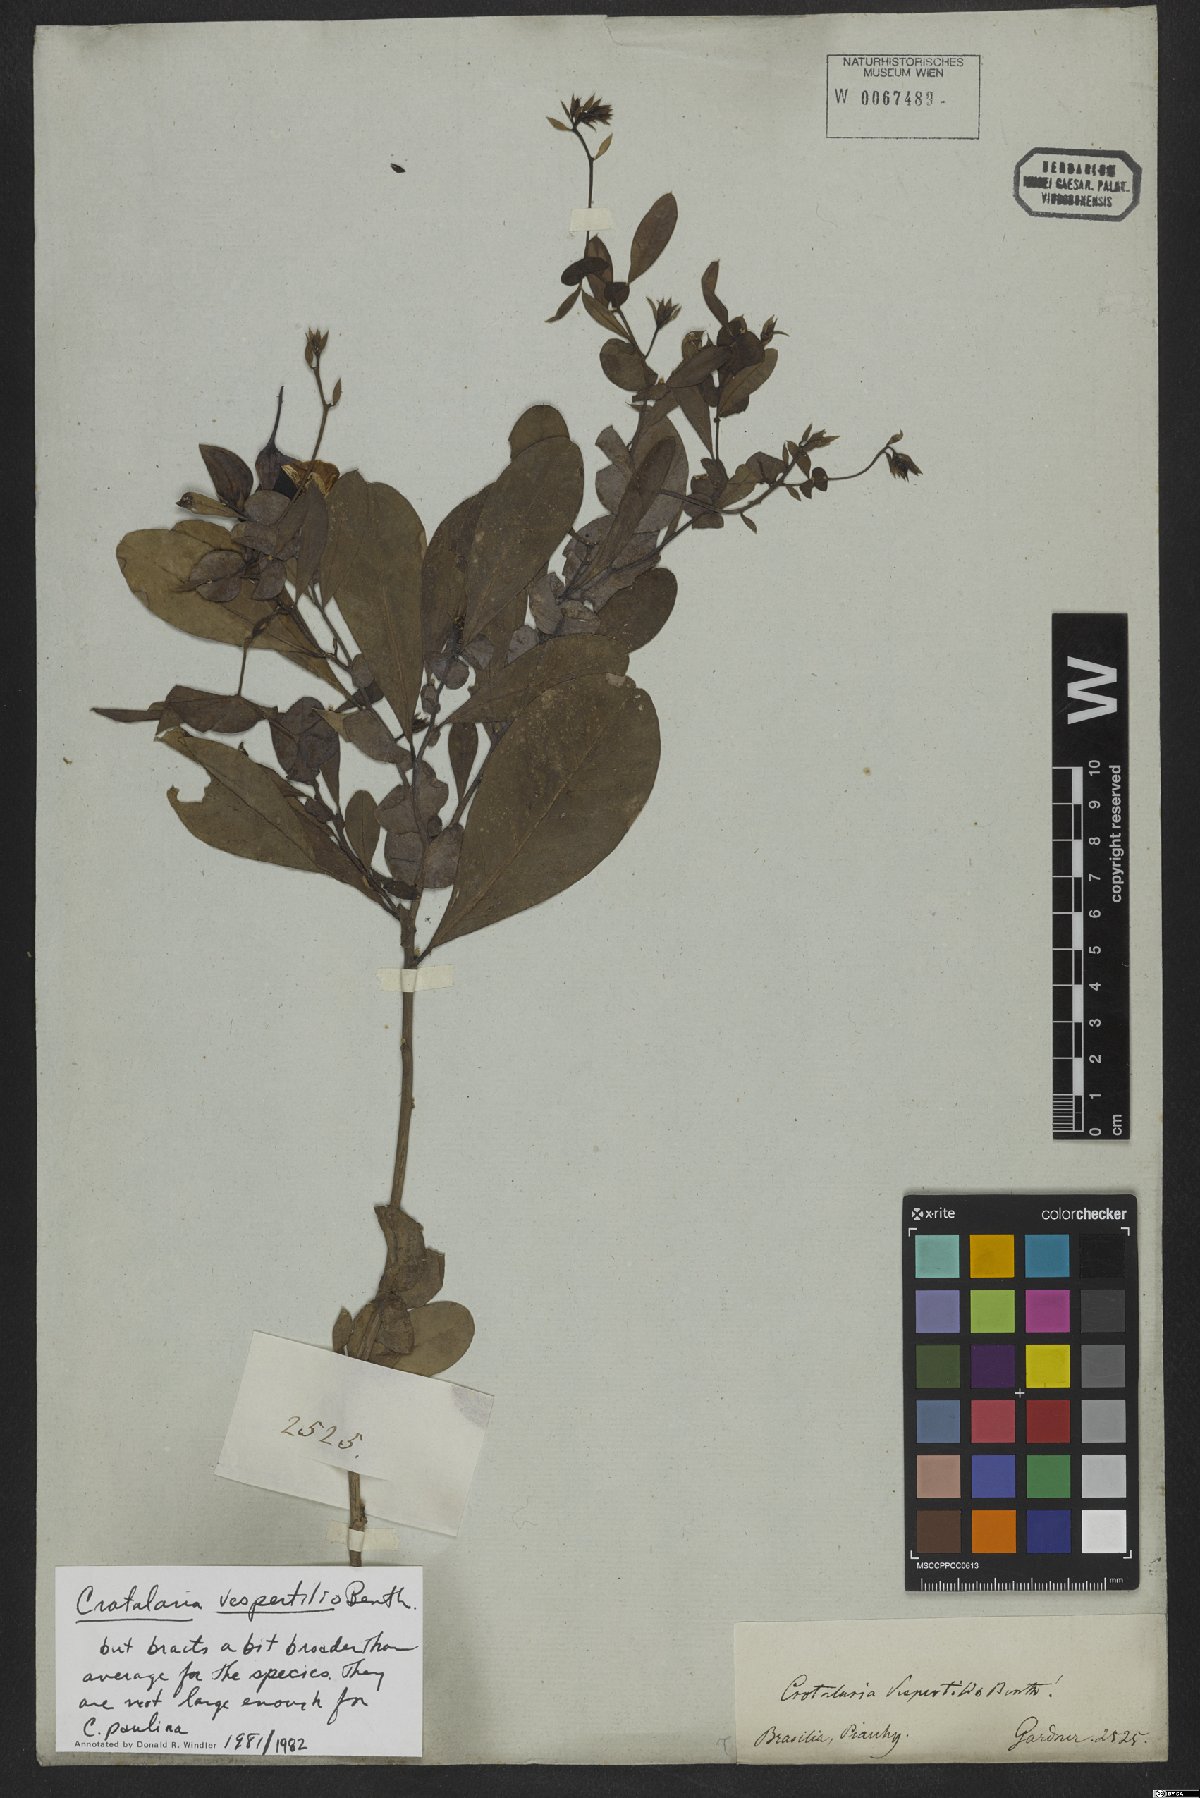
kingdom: Plantae
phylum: Tracheophyta
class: Magnoliopsida
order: Fabales
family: Fabaceae
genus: Crotalaria
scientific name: Crotalaria vespertilio
